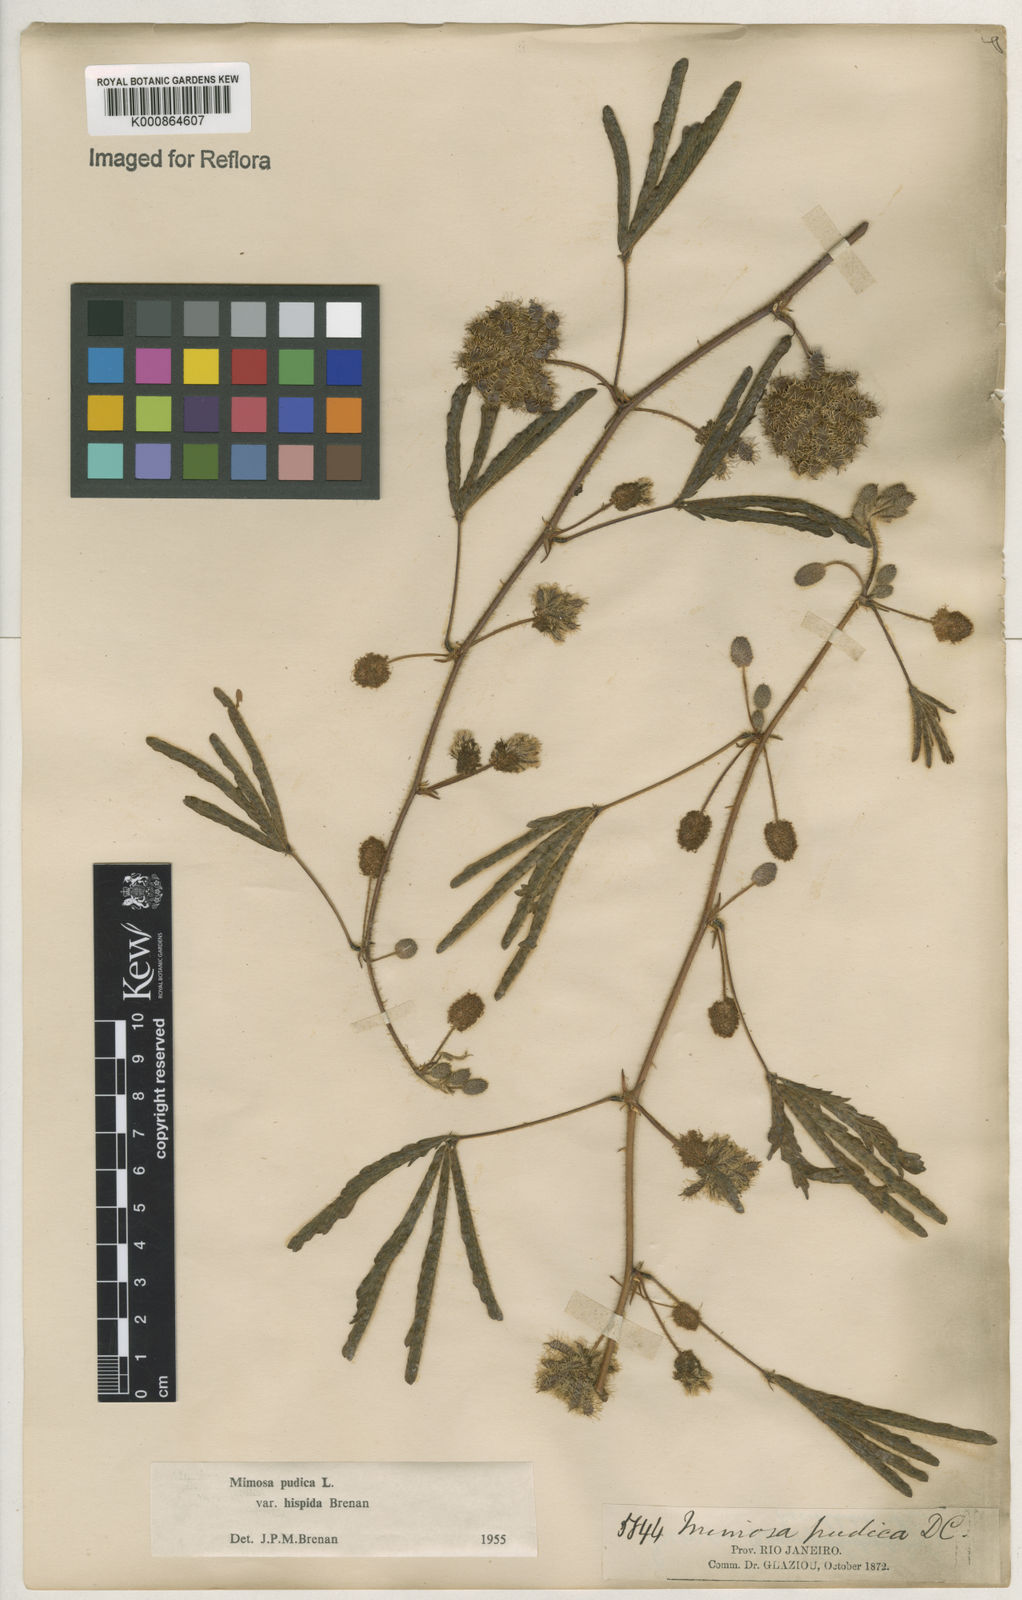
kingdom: Plantae
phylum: Tracheophyta
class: Magnoliopsida
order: Fabales
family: Fabaceae
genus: Mimosa
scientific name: Mimosa pudica
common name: Sensitive plant
